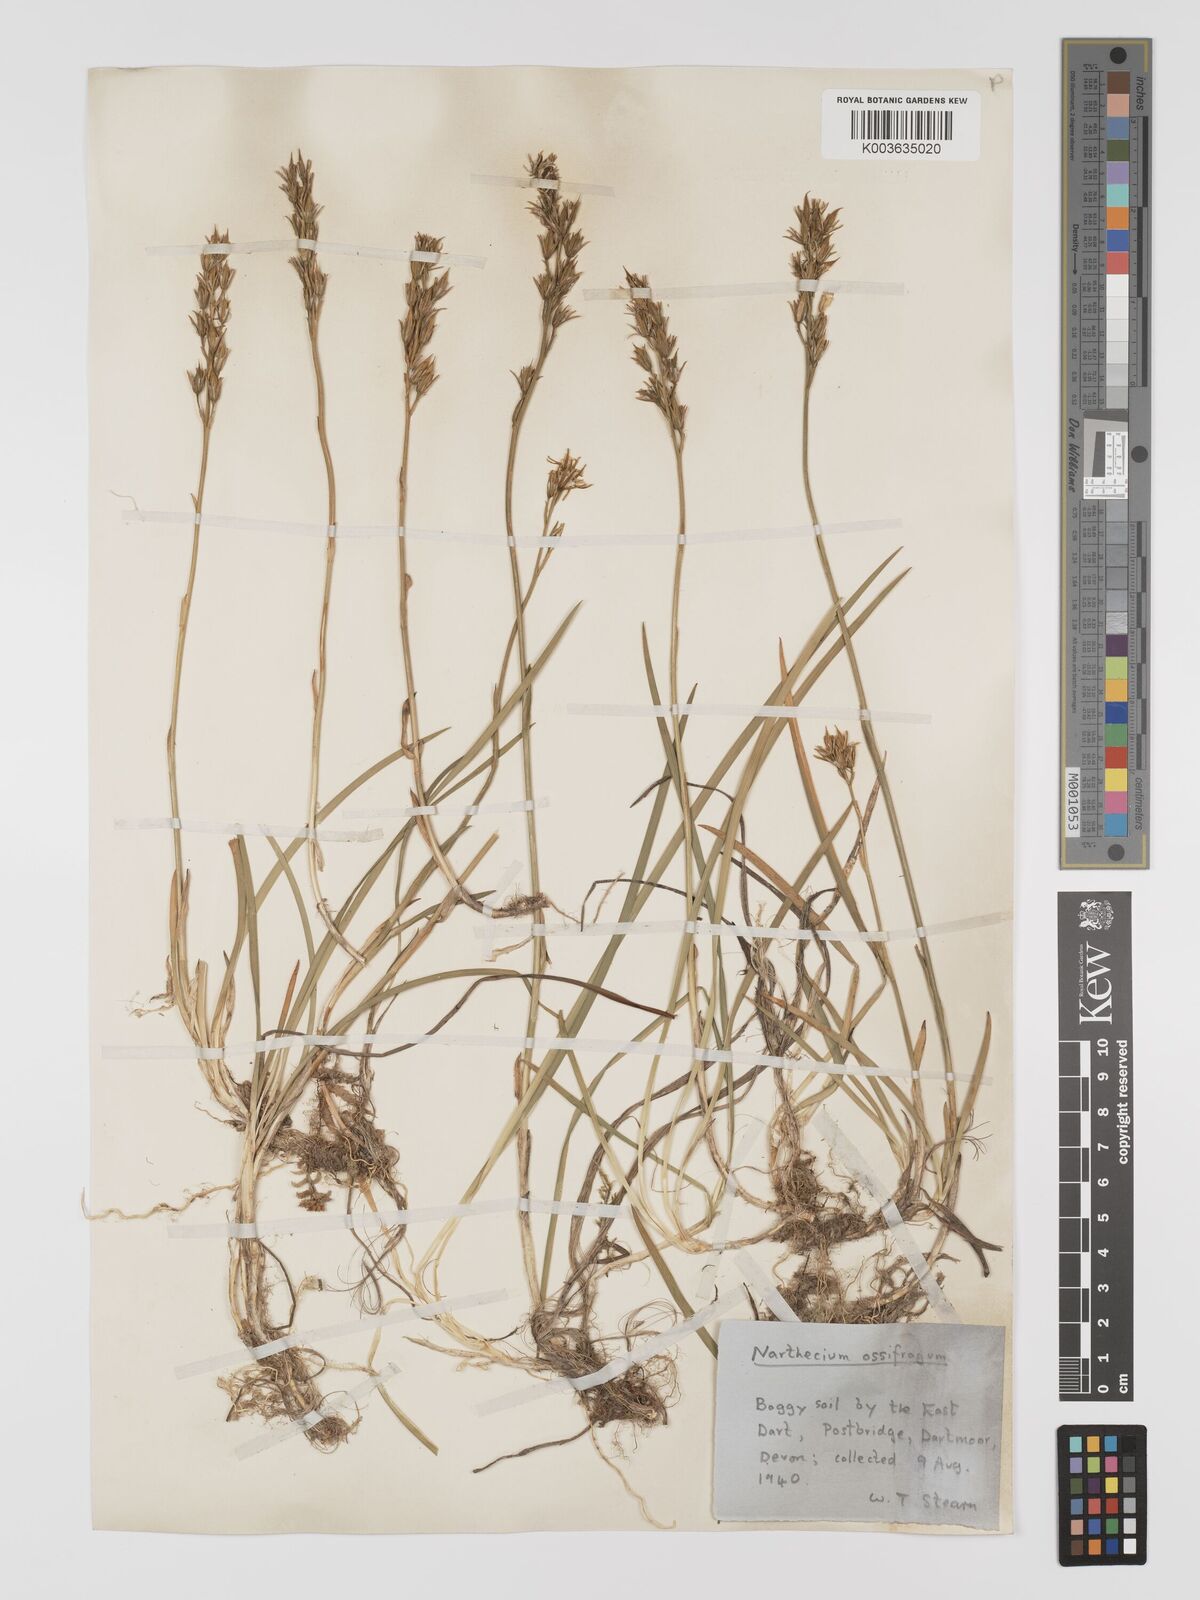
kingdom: Plantae
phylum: Tracheophyta
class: Liliopsida
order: Dioscoreales
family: Nartheciaceae
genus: Narthecium
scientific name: Narthecium ossifragum
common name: Bog asphodel
